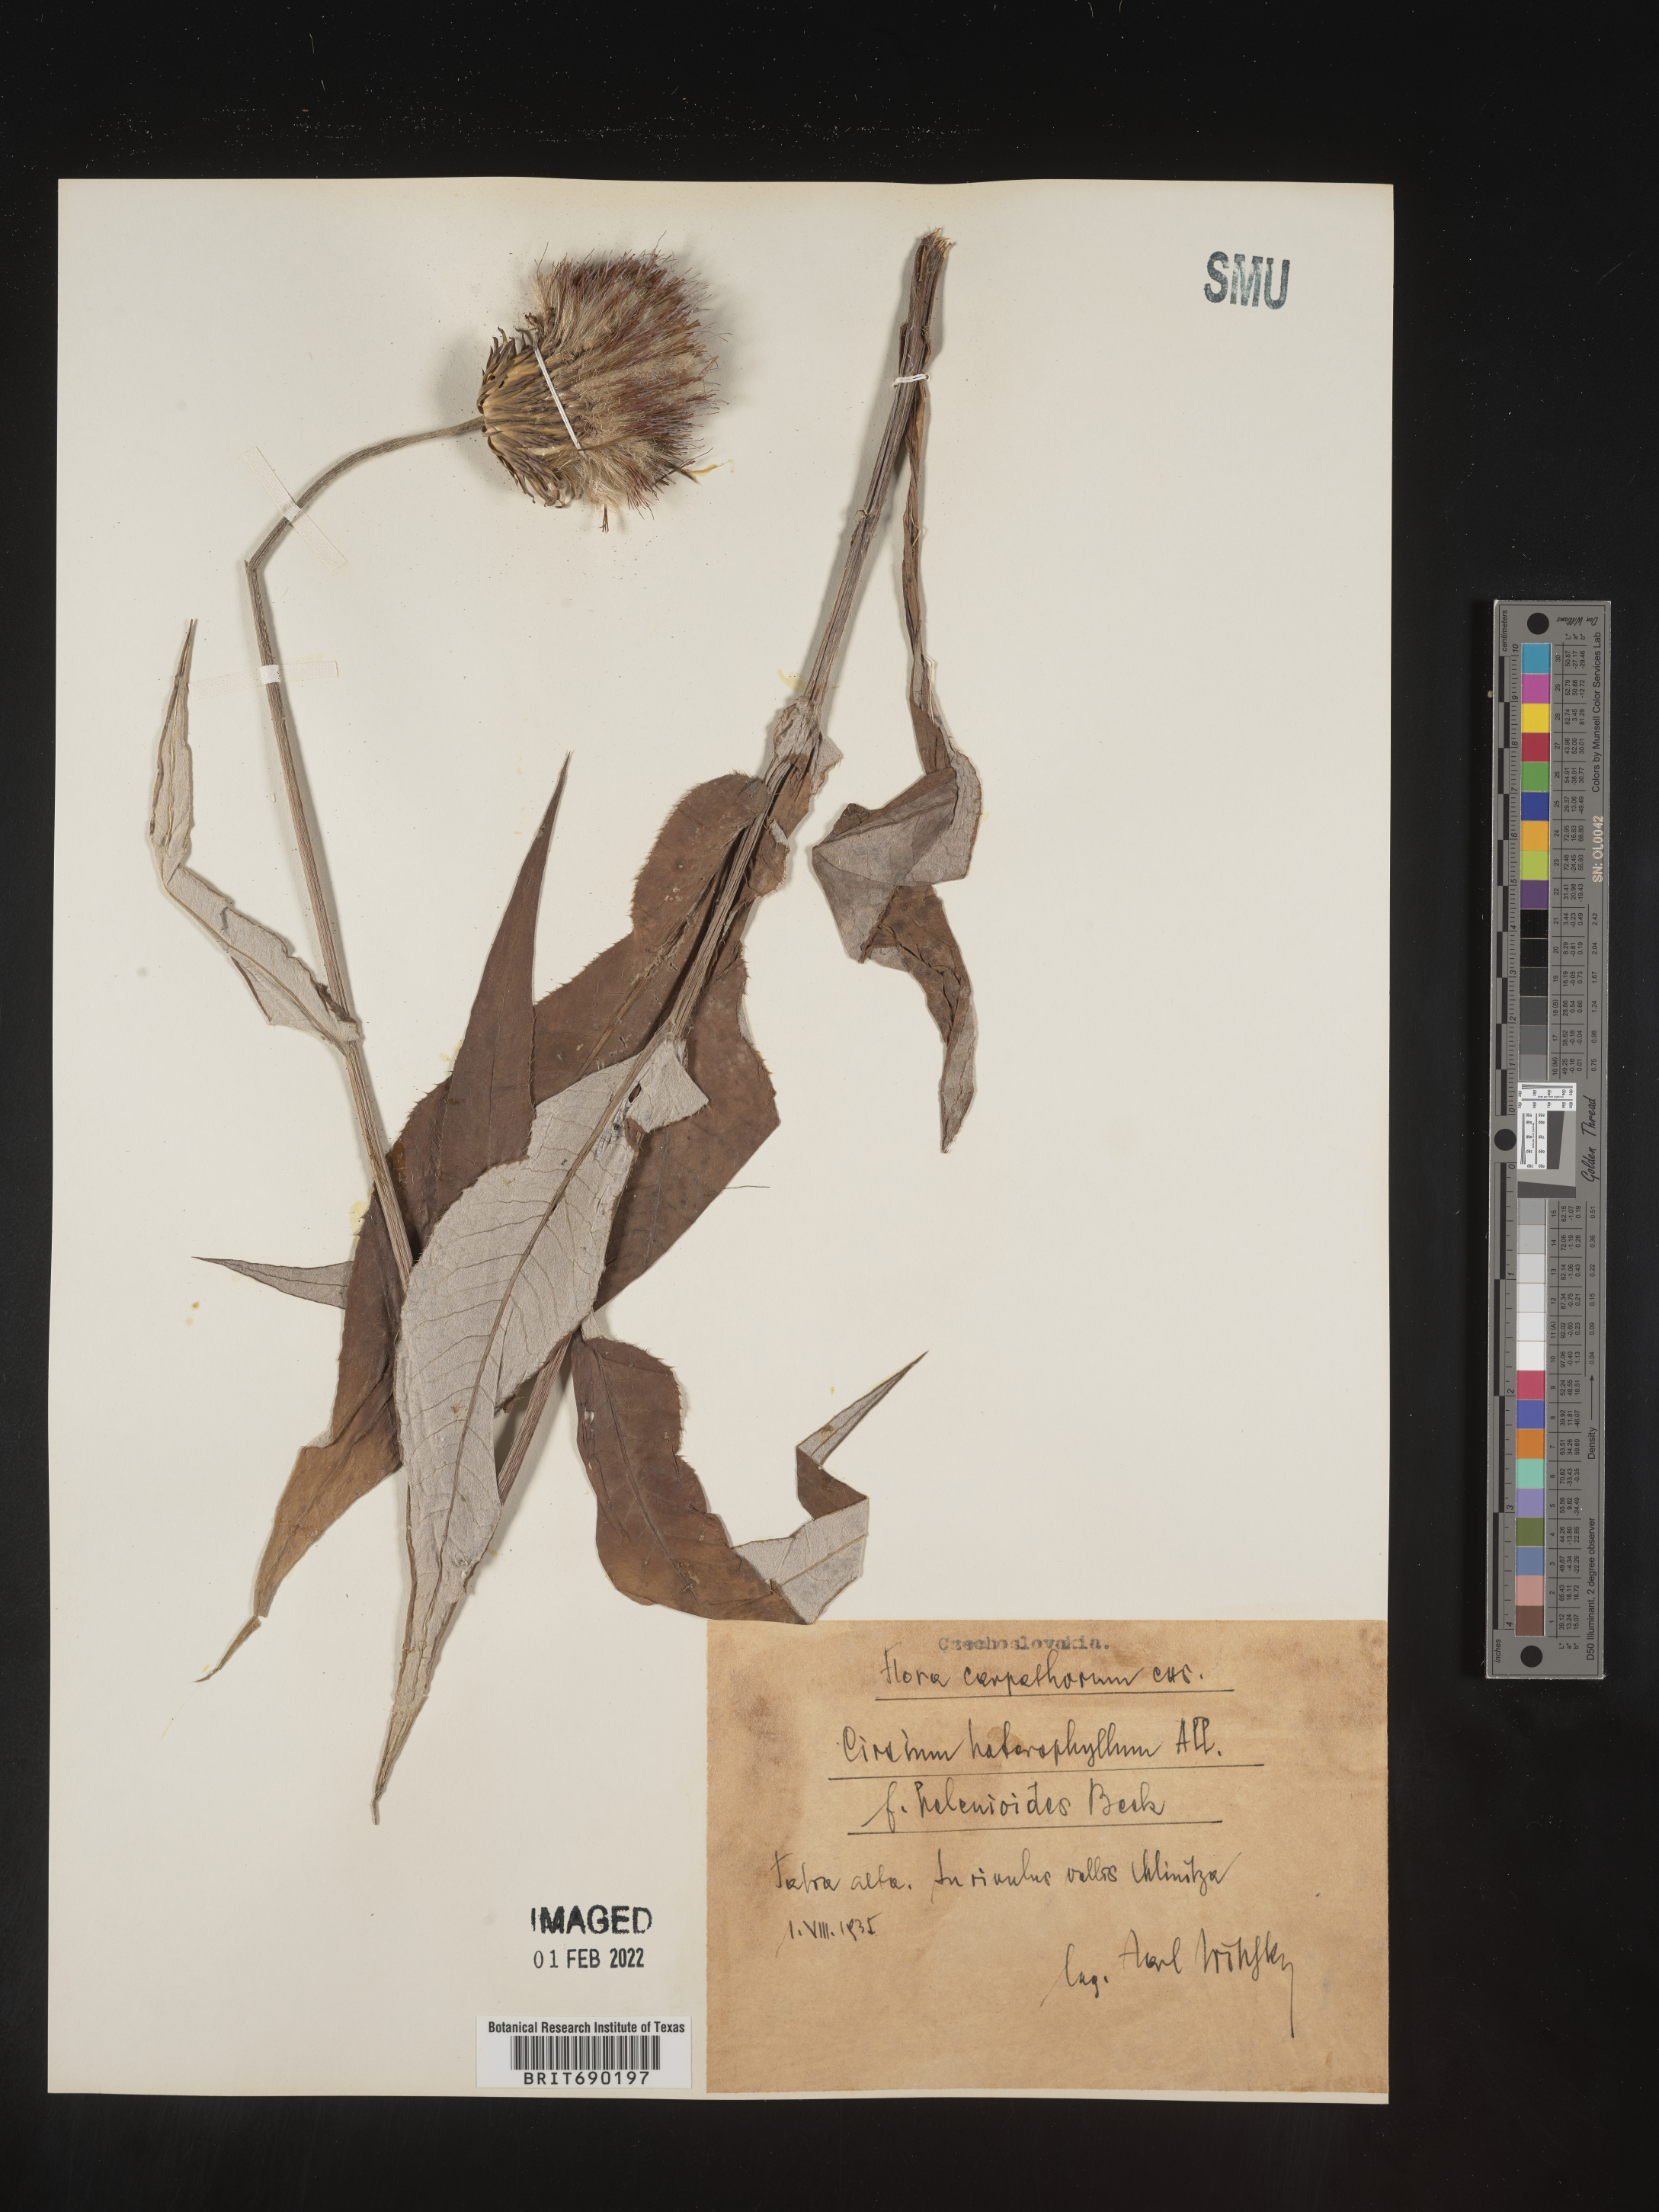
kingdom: Plantae
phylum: Tracheophyta
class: Magnoliopsida
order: Asterales
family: Asteraceae
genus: Cirsium
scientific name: Cirsium
